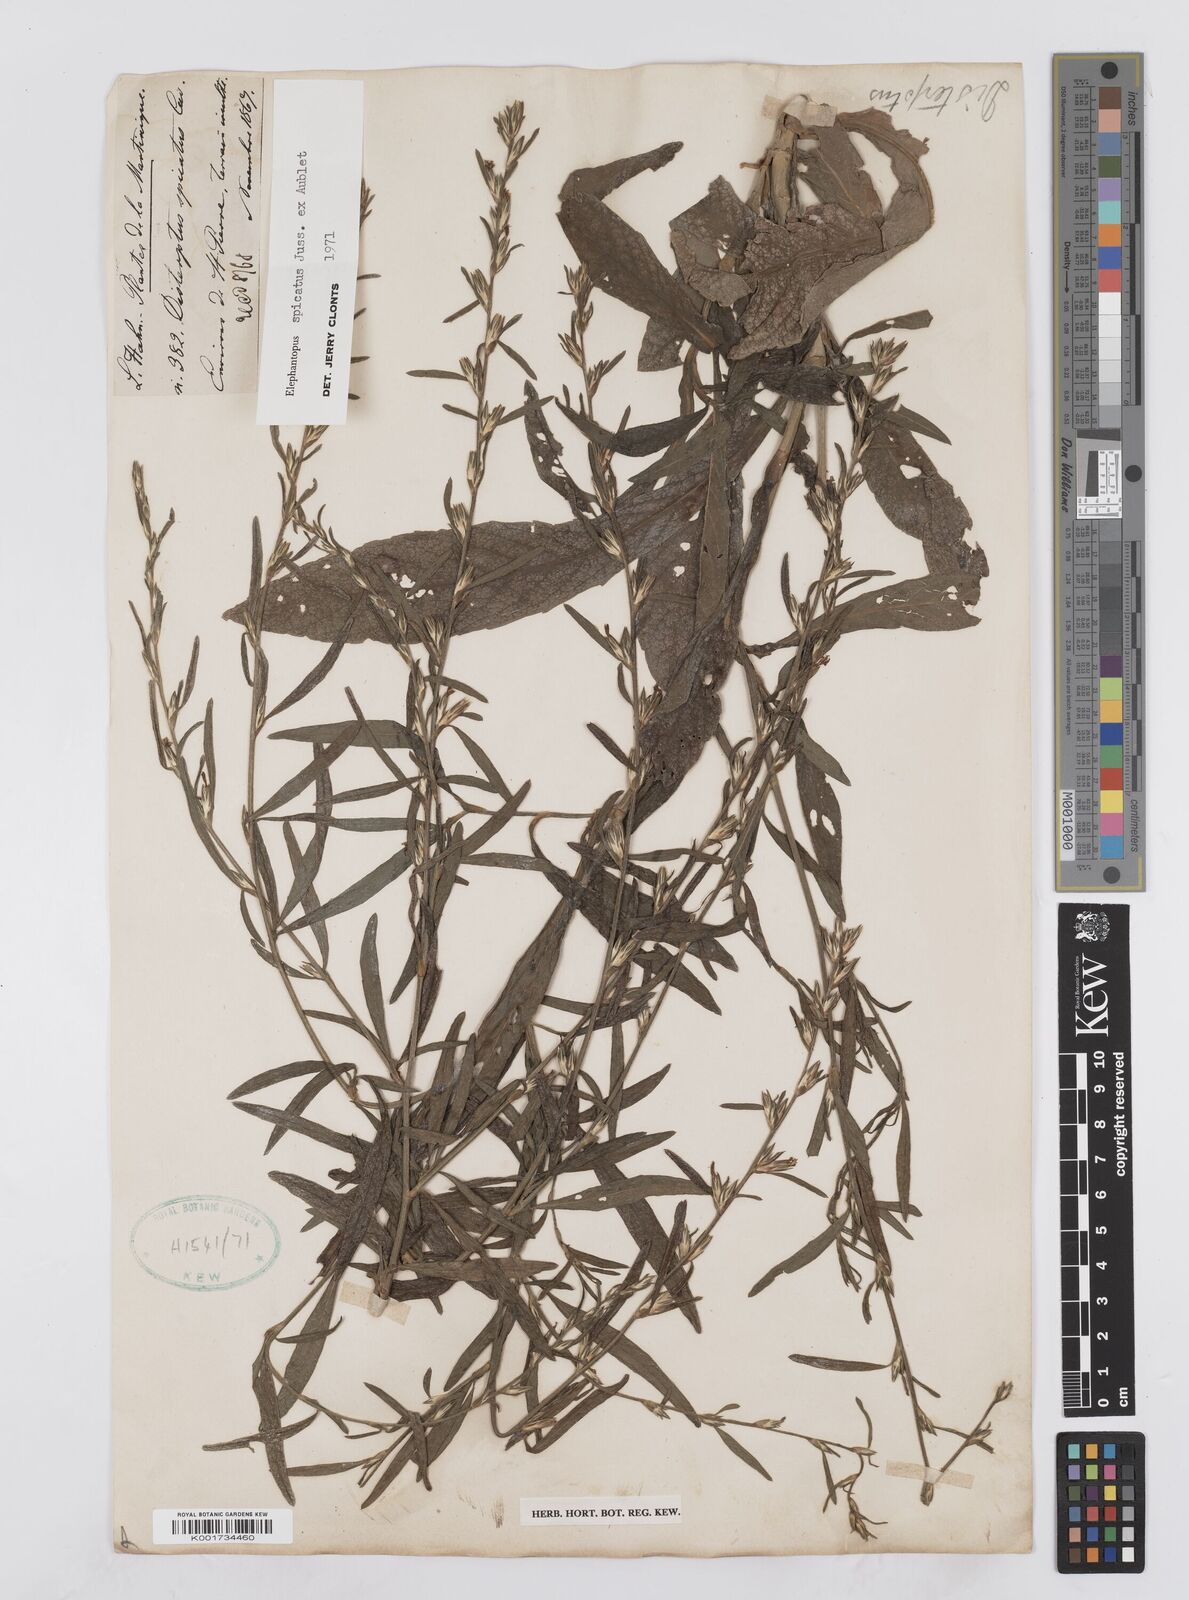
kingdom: Plantae
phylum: Tracheophyta
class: Magnoliopsida
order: Asterales
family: Asteraceae
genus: Pseudelephantopus
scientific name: Pseudelephantopus spicatus
